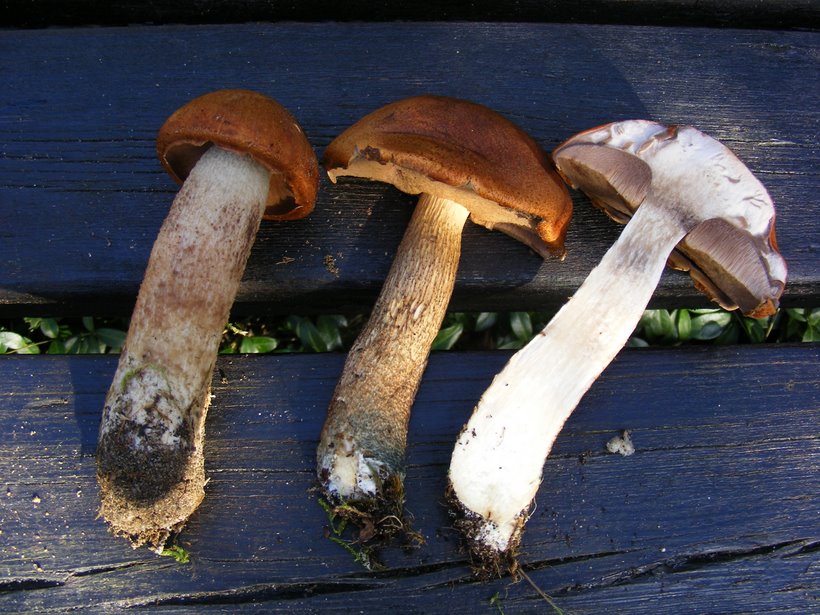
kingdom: Fungi
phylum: Basidiomycota
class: Agaricomycetes
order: Boletales
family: Boletaceae
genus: Leccinum
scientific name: Leccinum albostipitatum
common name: aspe-skælrørhat
